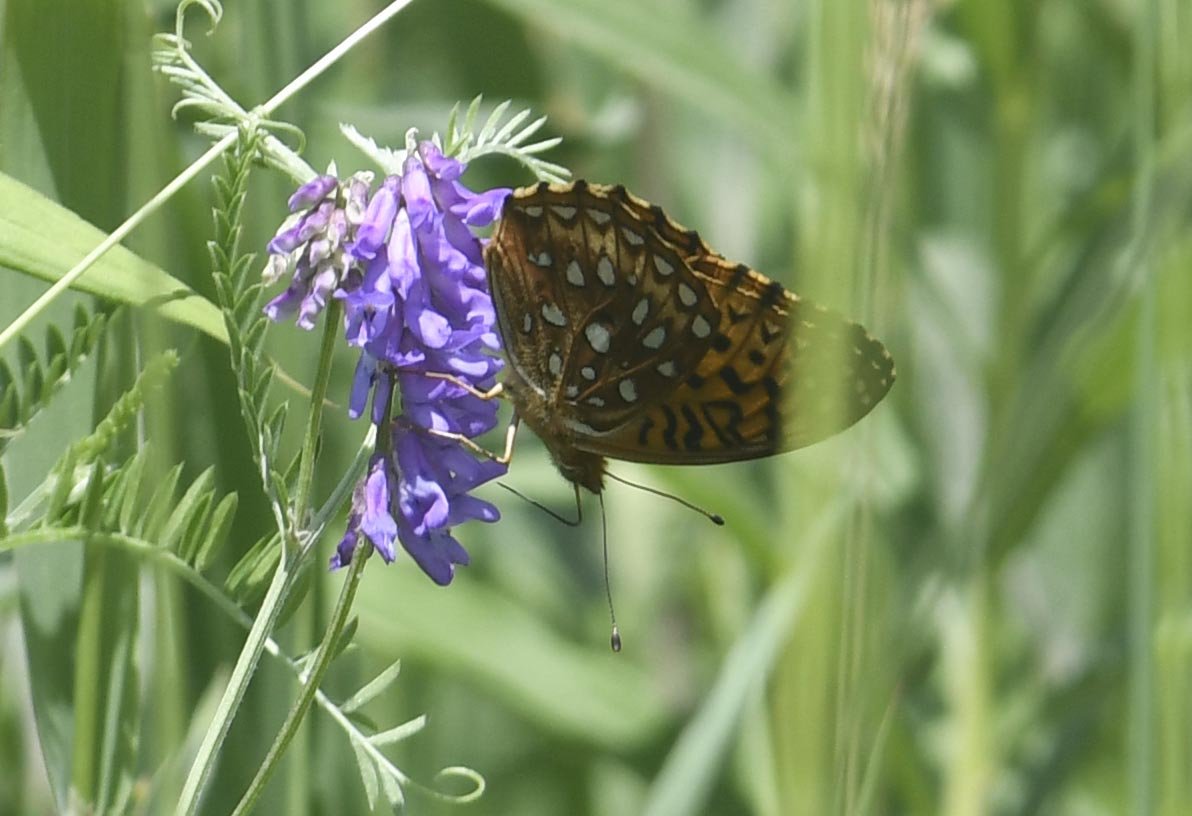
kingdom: Animalia
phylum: Arthropoda
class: Insecta
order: Lepidoptera
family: Nymphalidae
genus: Speyeria
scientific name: Speyeria aphrodite
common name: Aphrodite Fritillary
